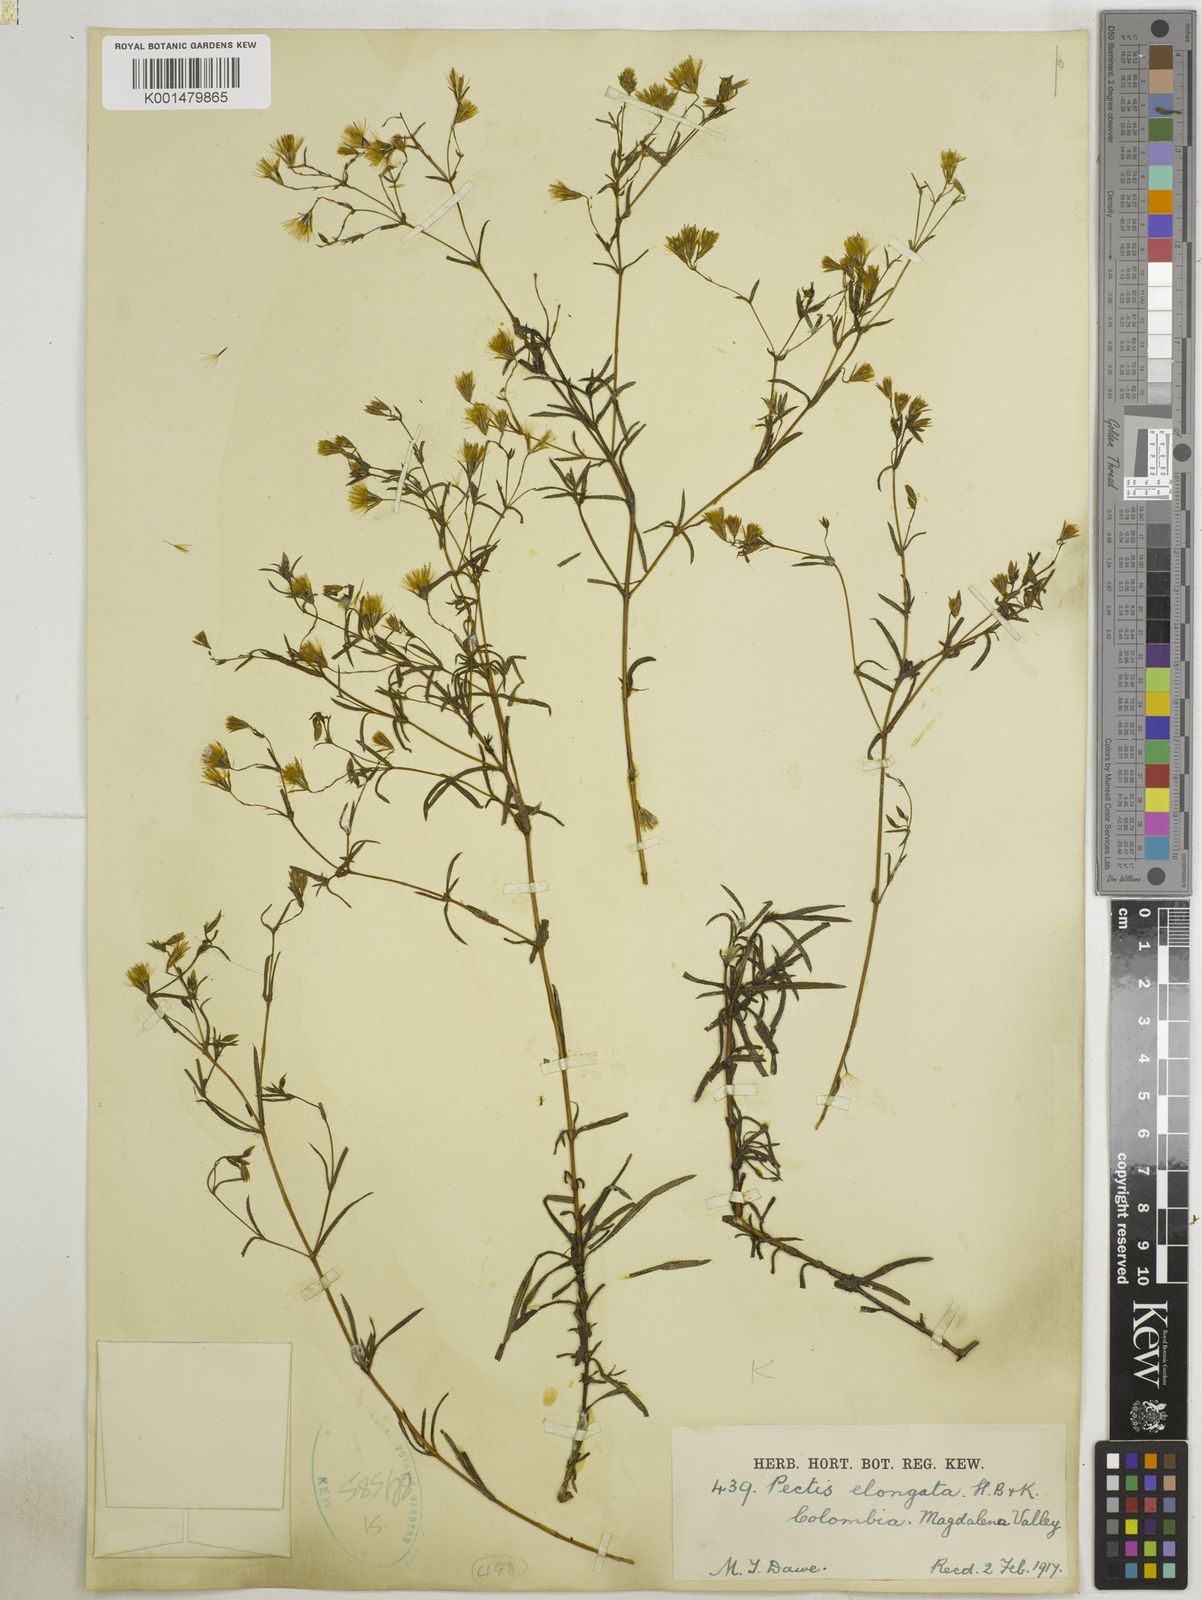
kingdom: Plantae
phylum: Tracheophyta
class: Magnoliopsida
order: Asterales
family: Asteraceae
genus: Pectis
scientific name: Pectis elongata
